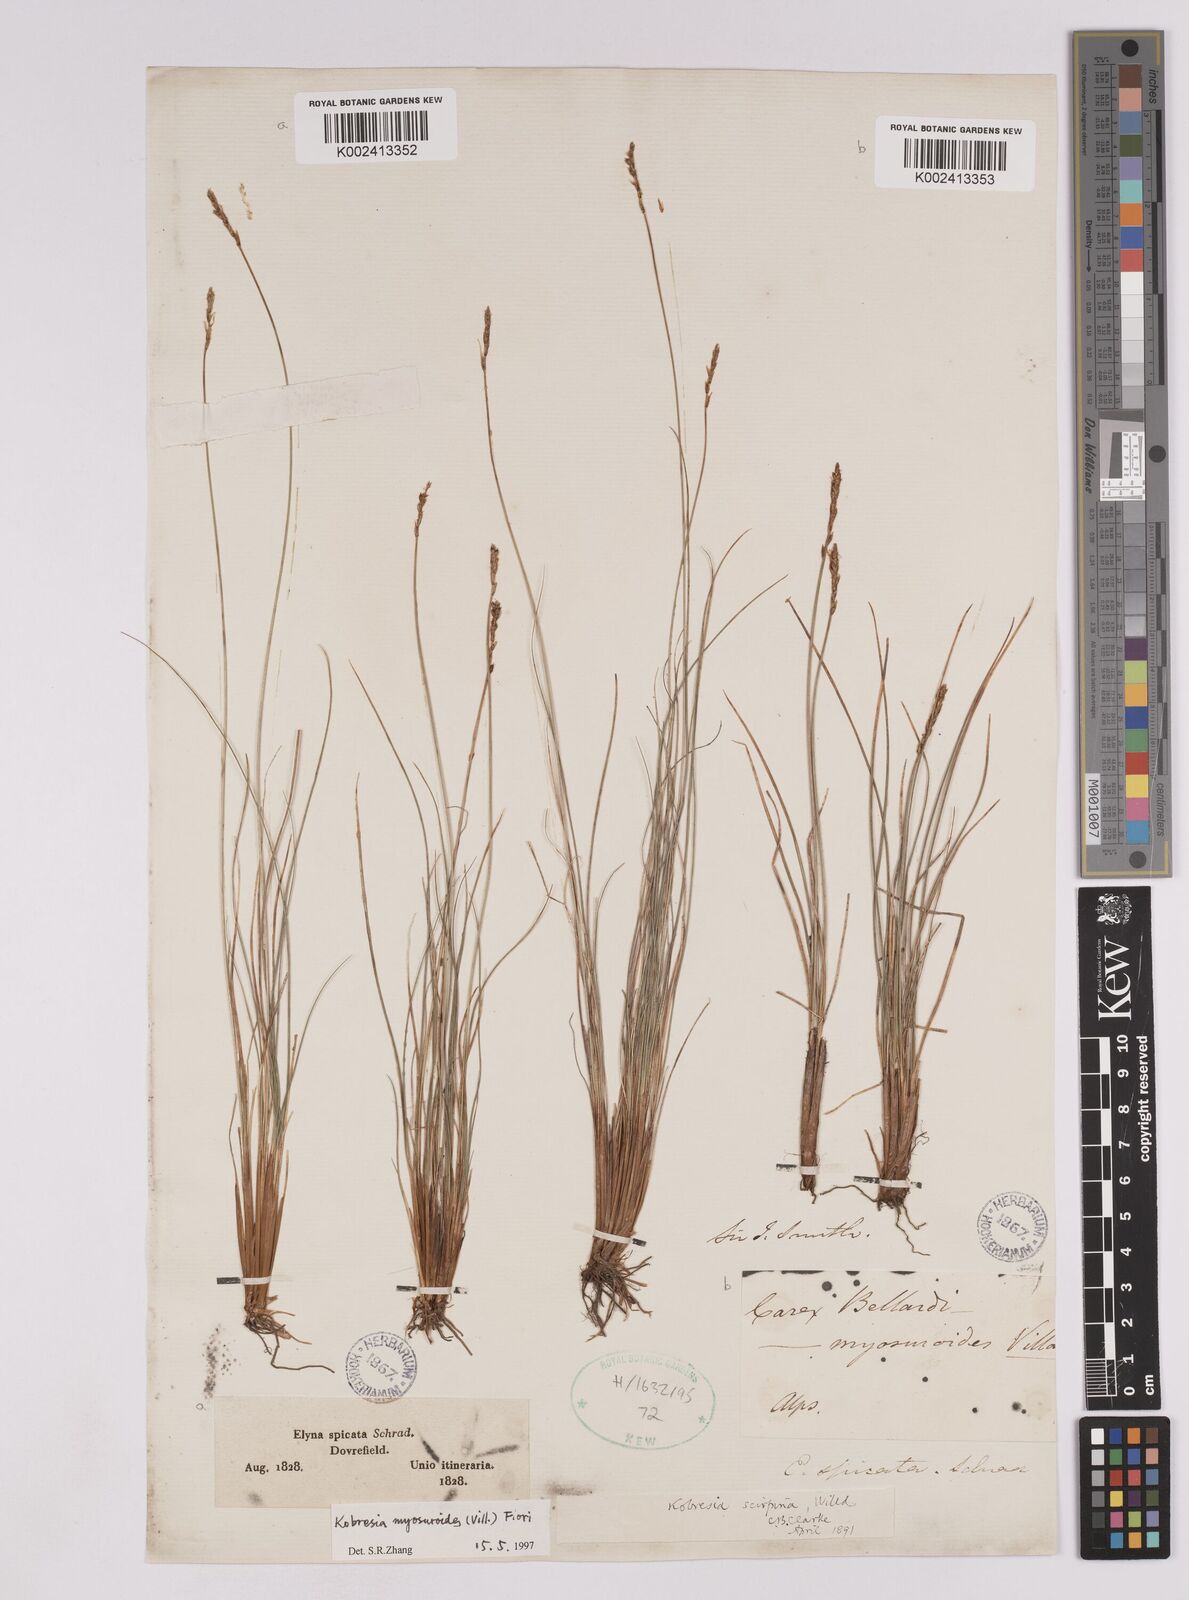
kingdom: Plantae
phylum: Tracheophyta
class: Liliopsida
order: Poales
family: Cyperaceae
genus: Carex
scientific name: Carex myosuroides
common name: Bellard's bog sedge
